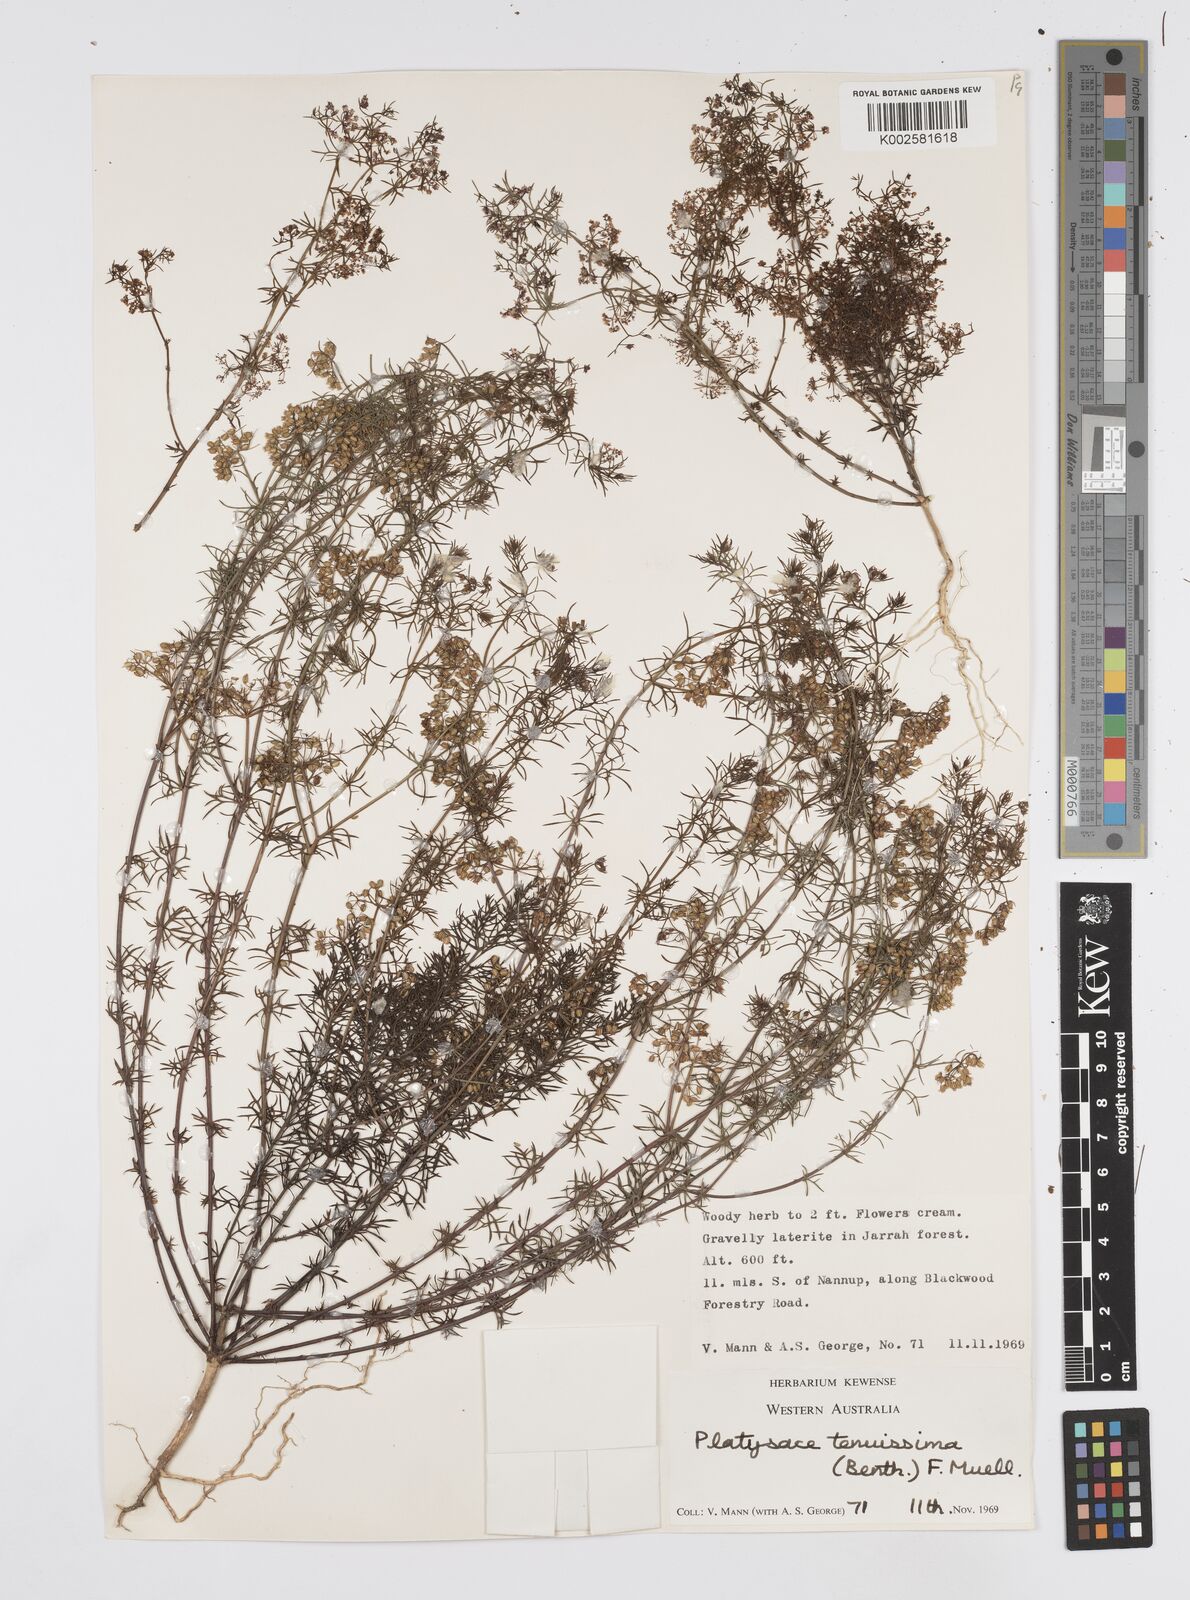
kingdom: Plantae
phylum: Tracheophyta
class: Magnoliopsida
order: Apiales
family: Apiaceae
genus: Platysace
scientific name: Platysace tenuissima
